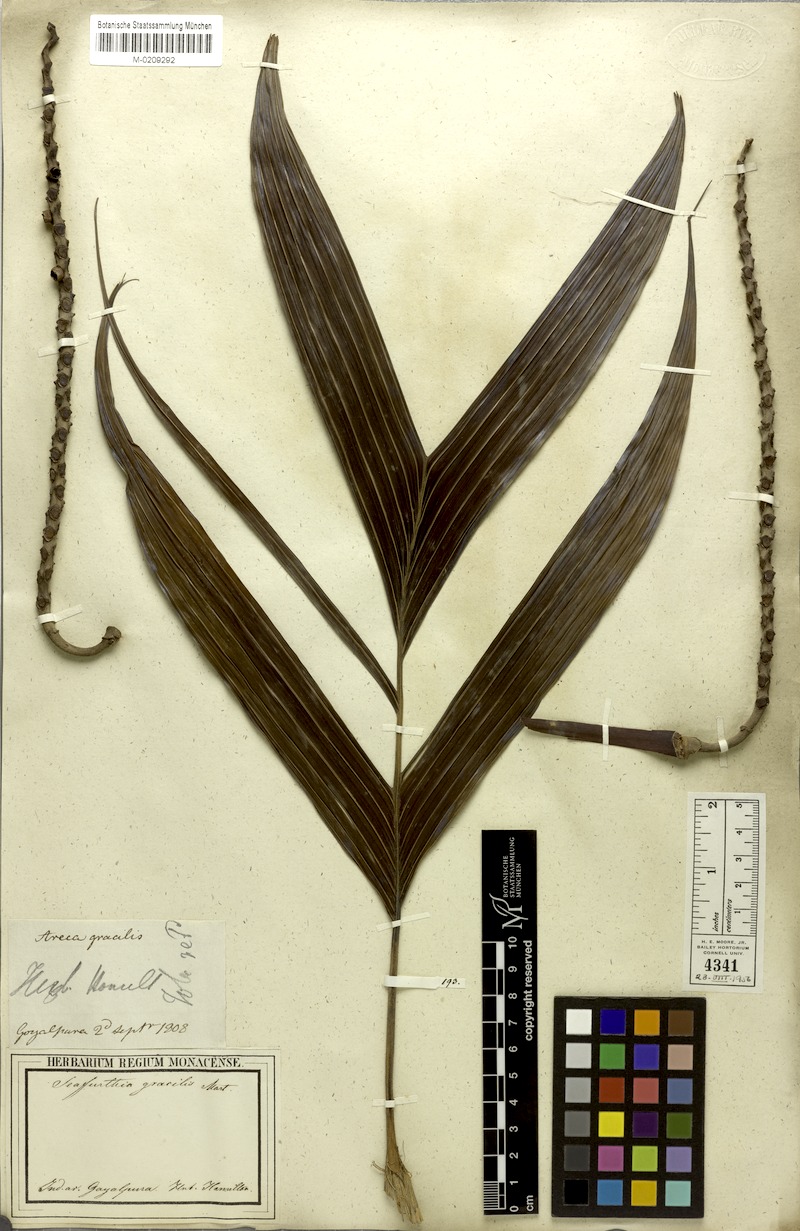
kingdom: Plantae
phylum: Tracheophyta
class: Liliopsida
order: Arecales
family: Arecaceae
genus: Pinanga
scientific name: Pinanga gracilis
